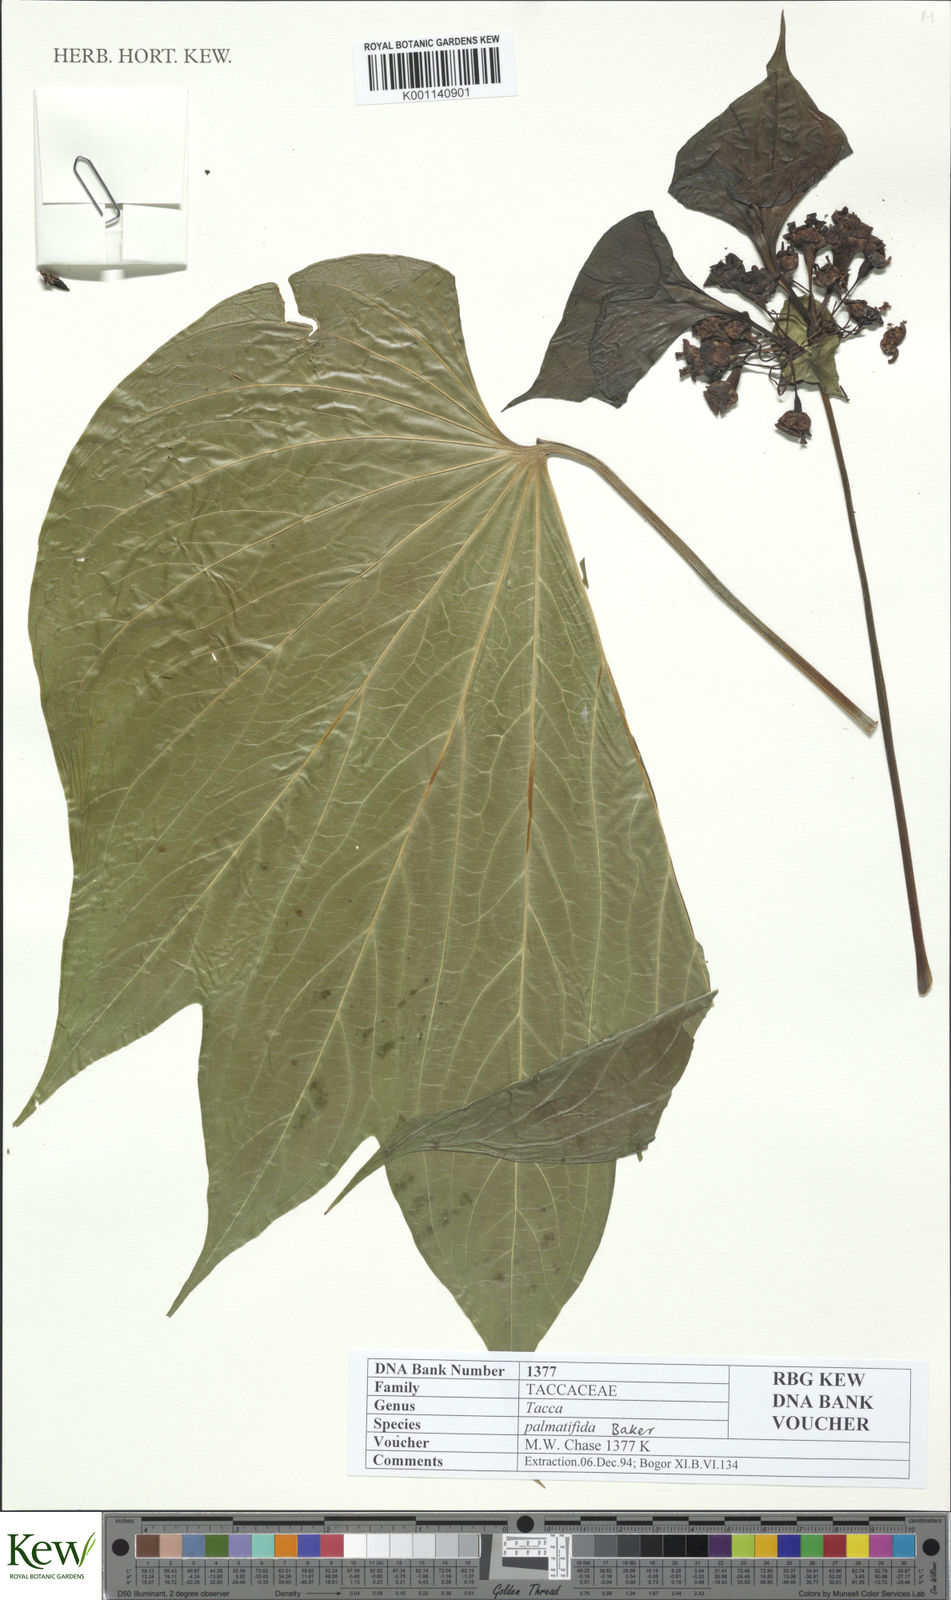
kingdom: Plantae
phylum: Tracheophyta
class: Liliopsida
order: Dioscoreales
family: Dioscoreaceae
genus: Tacca
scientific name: Tacca palmatifida
